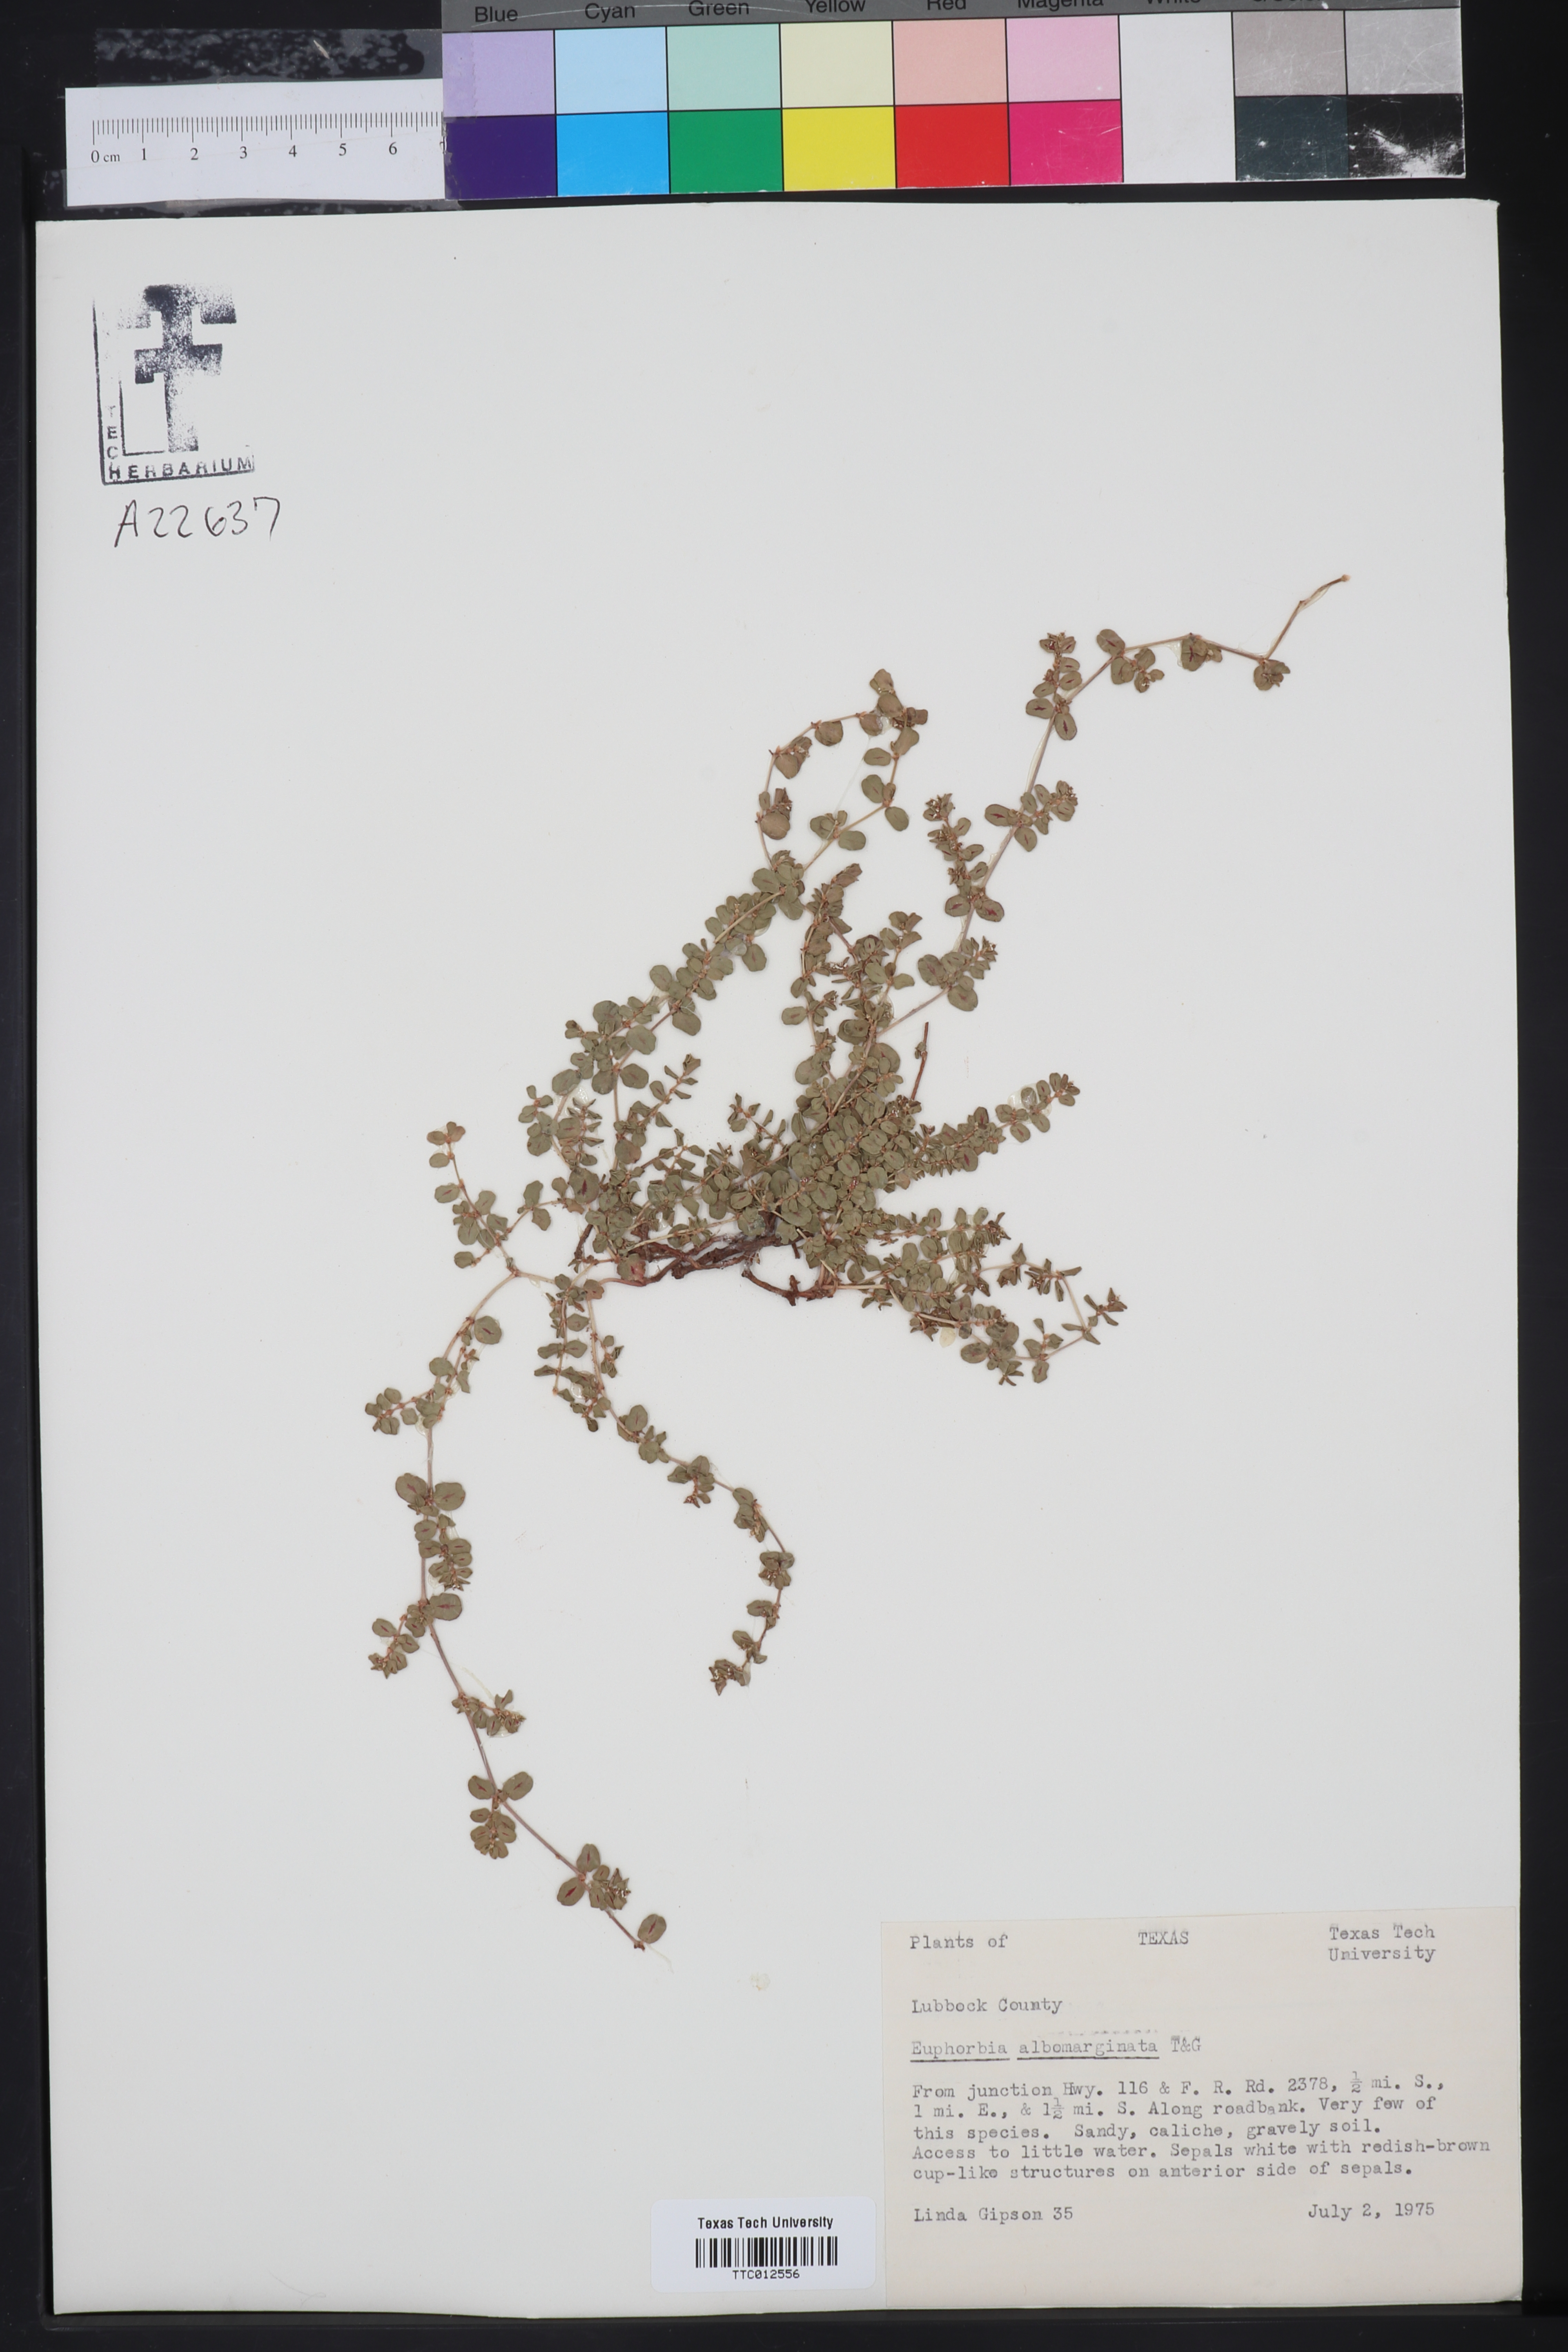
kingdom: Plantae
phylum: Tracheophyta
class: Magnoliopsida
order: Malpighiales
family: Euphorbiaceae
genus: Euphorbia
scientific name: Euphorbia albomarginata
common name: Whitemargin sandmat
